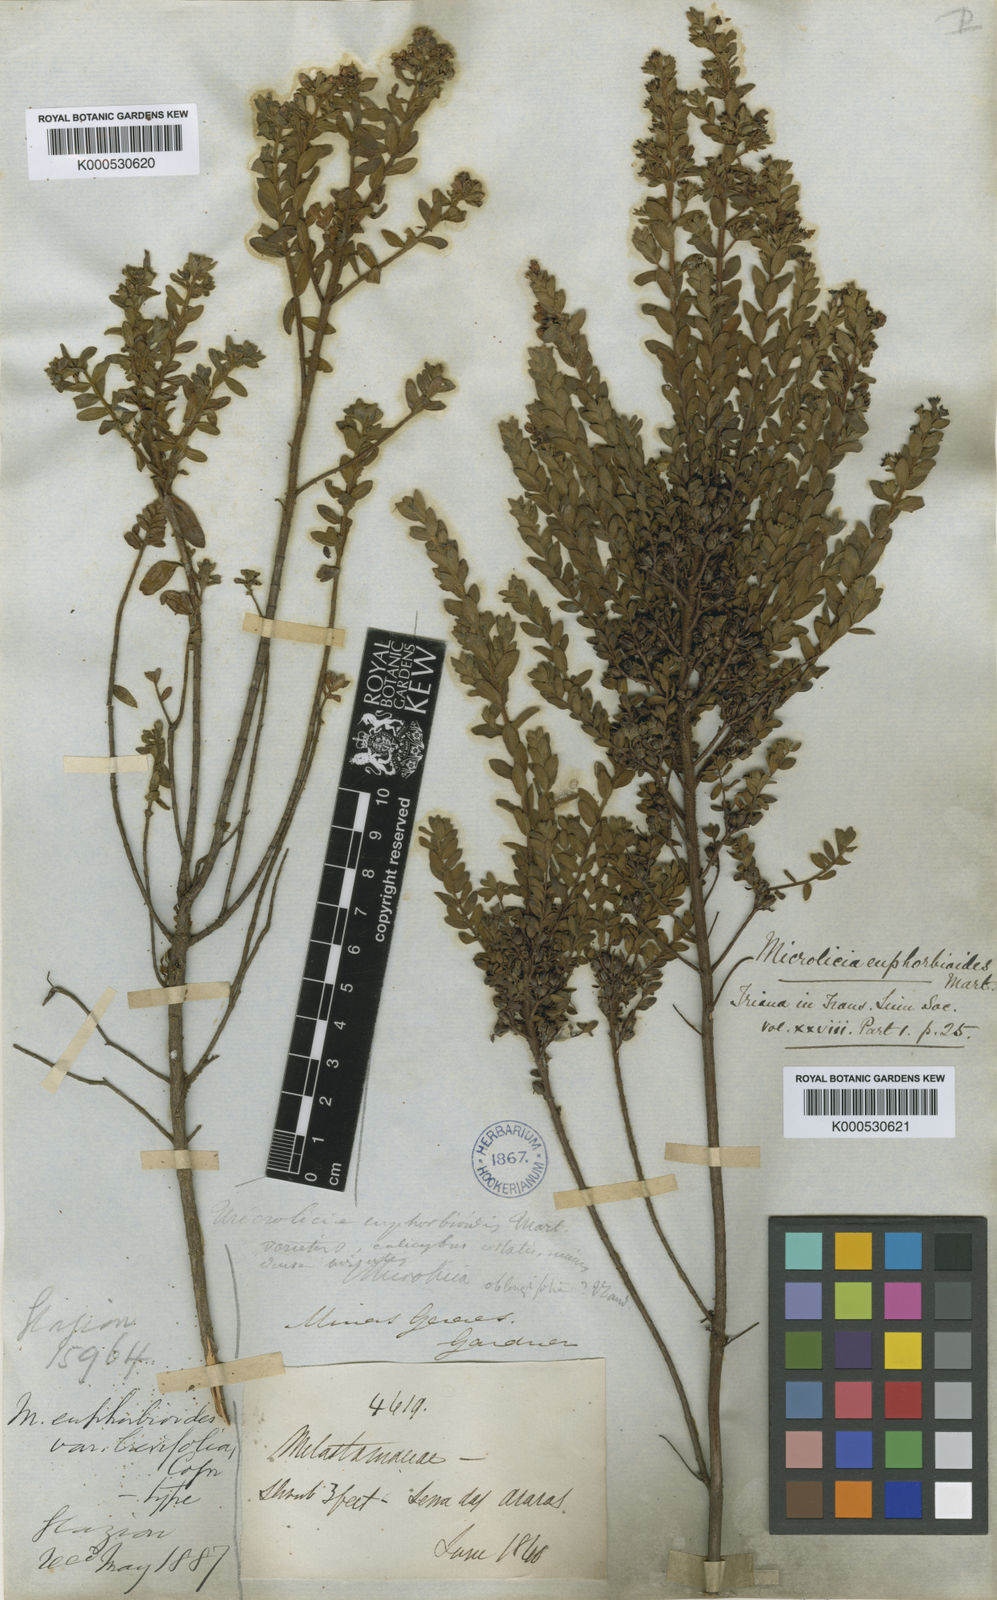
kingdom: Plantae
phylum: Tracheophyta
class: Magnoliopsida
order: Myrtales
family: Melastomataceae
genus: Microlicia
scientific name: Microlicia euphorbioides
